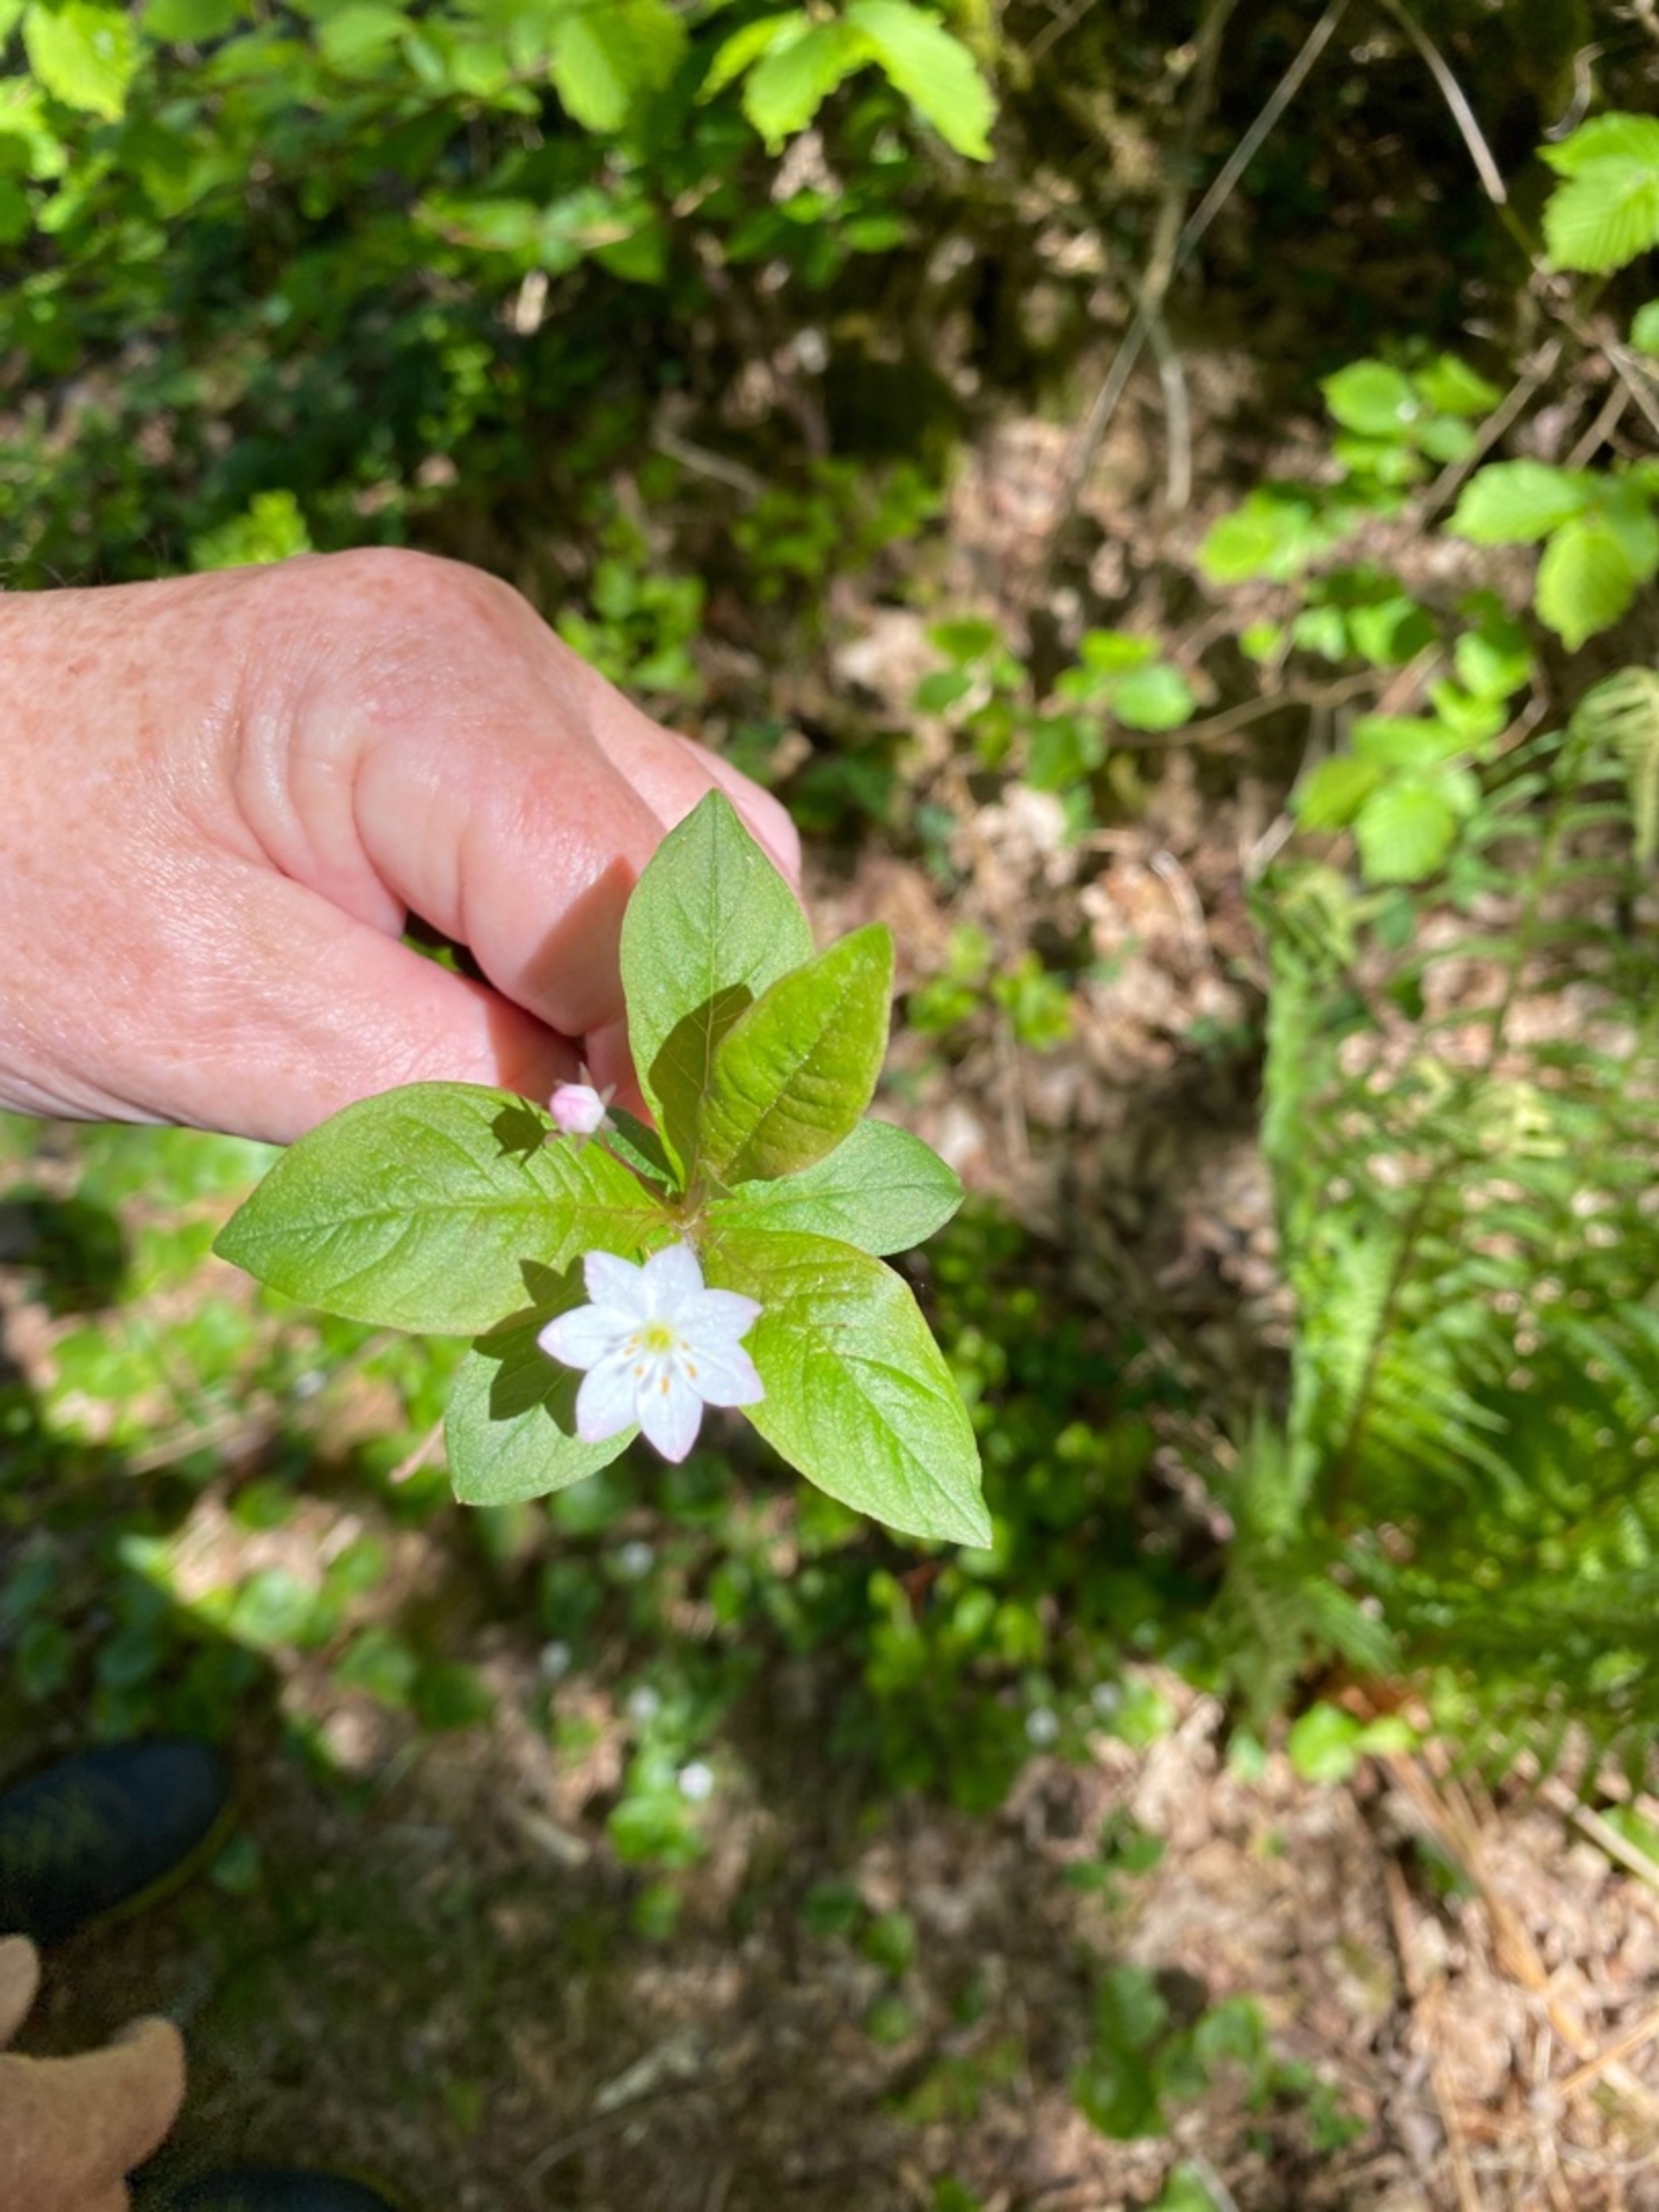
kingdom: Plantae
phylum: Tracheophyta
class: Magnoliopsida
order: Ericales
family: Primulaceae
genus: Lysimachia
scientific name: Lysimachia europaea
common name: Skovstjerne
